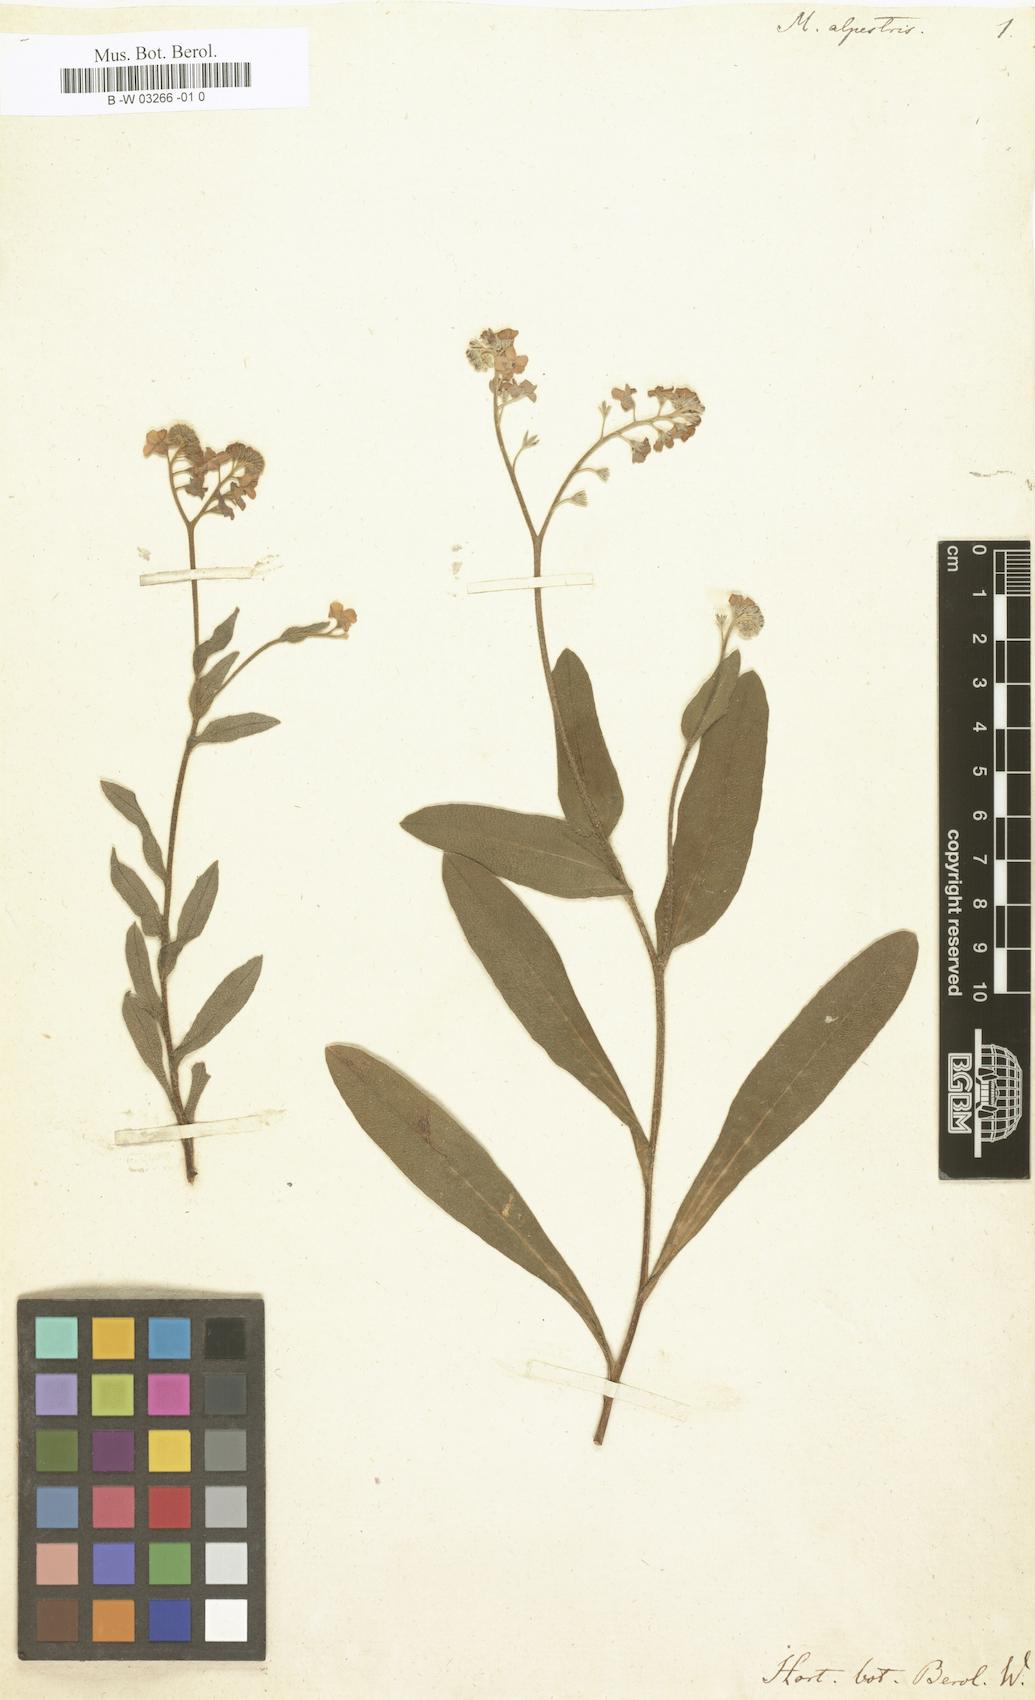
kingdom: Plantae
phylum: Tracheophyta
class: Magnoliopsida
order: Boraginales
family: Boraginaceae
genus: Myosotis
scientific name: Myosotis alpestris
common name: Alpine forget-me-not
